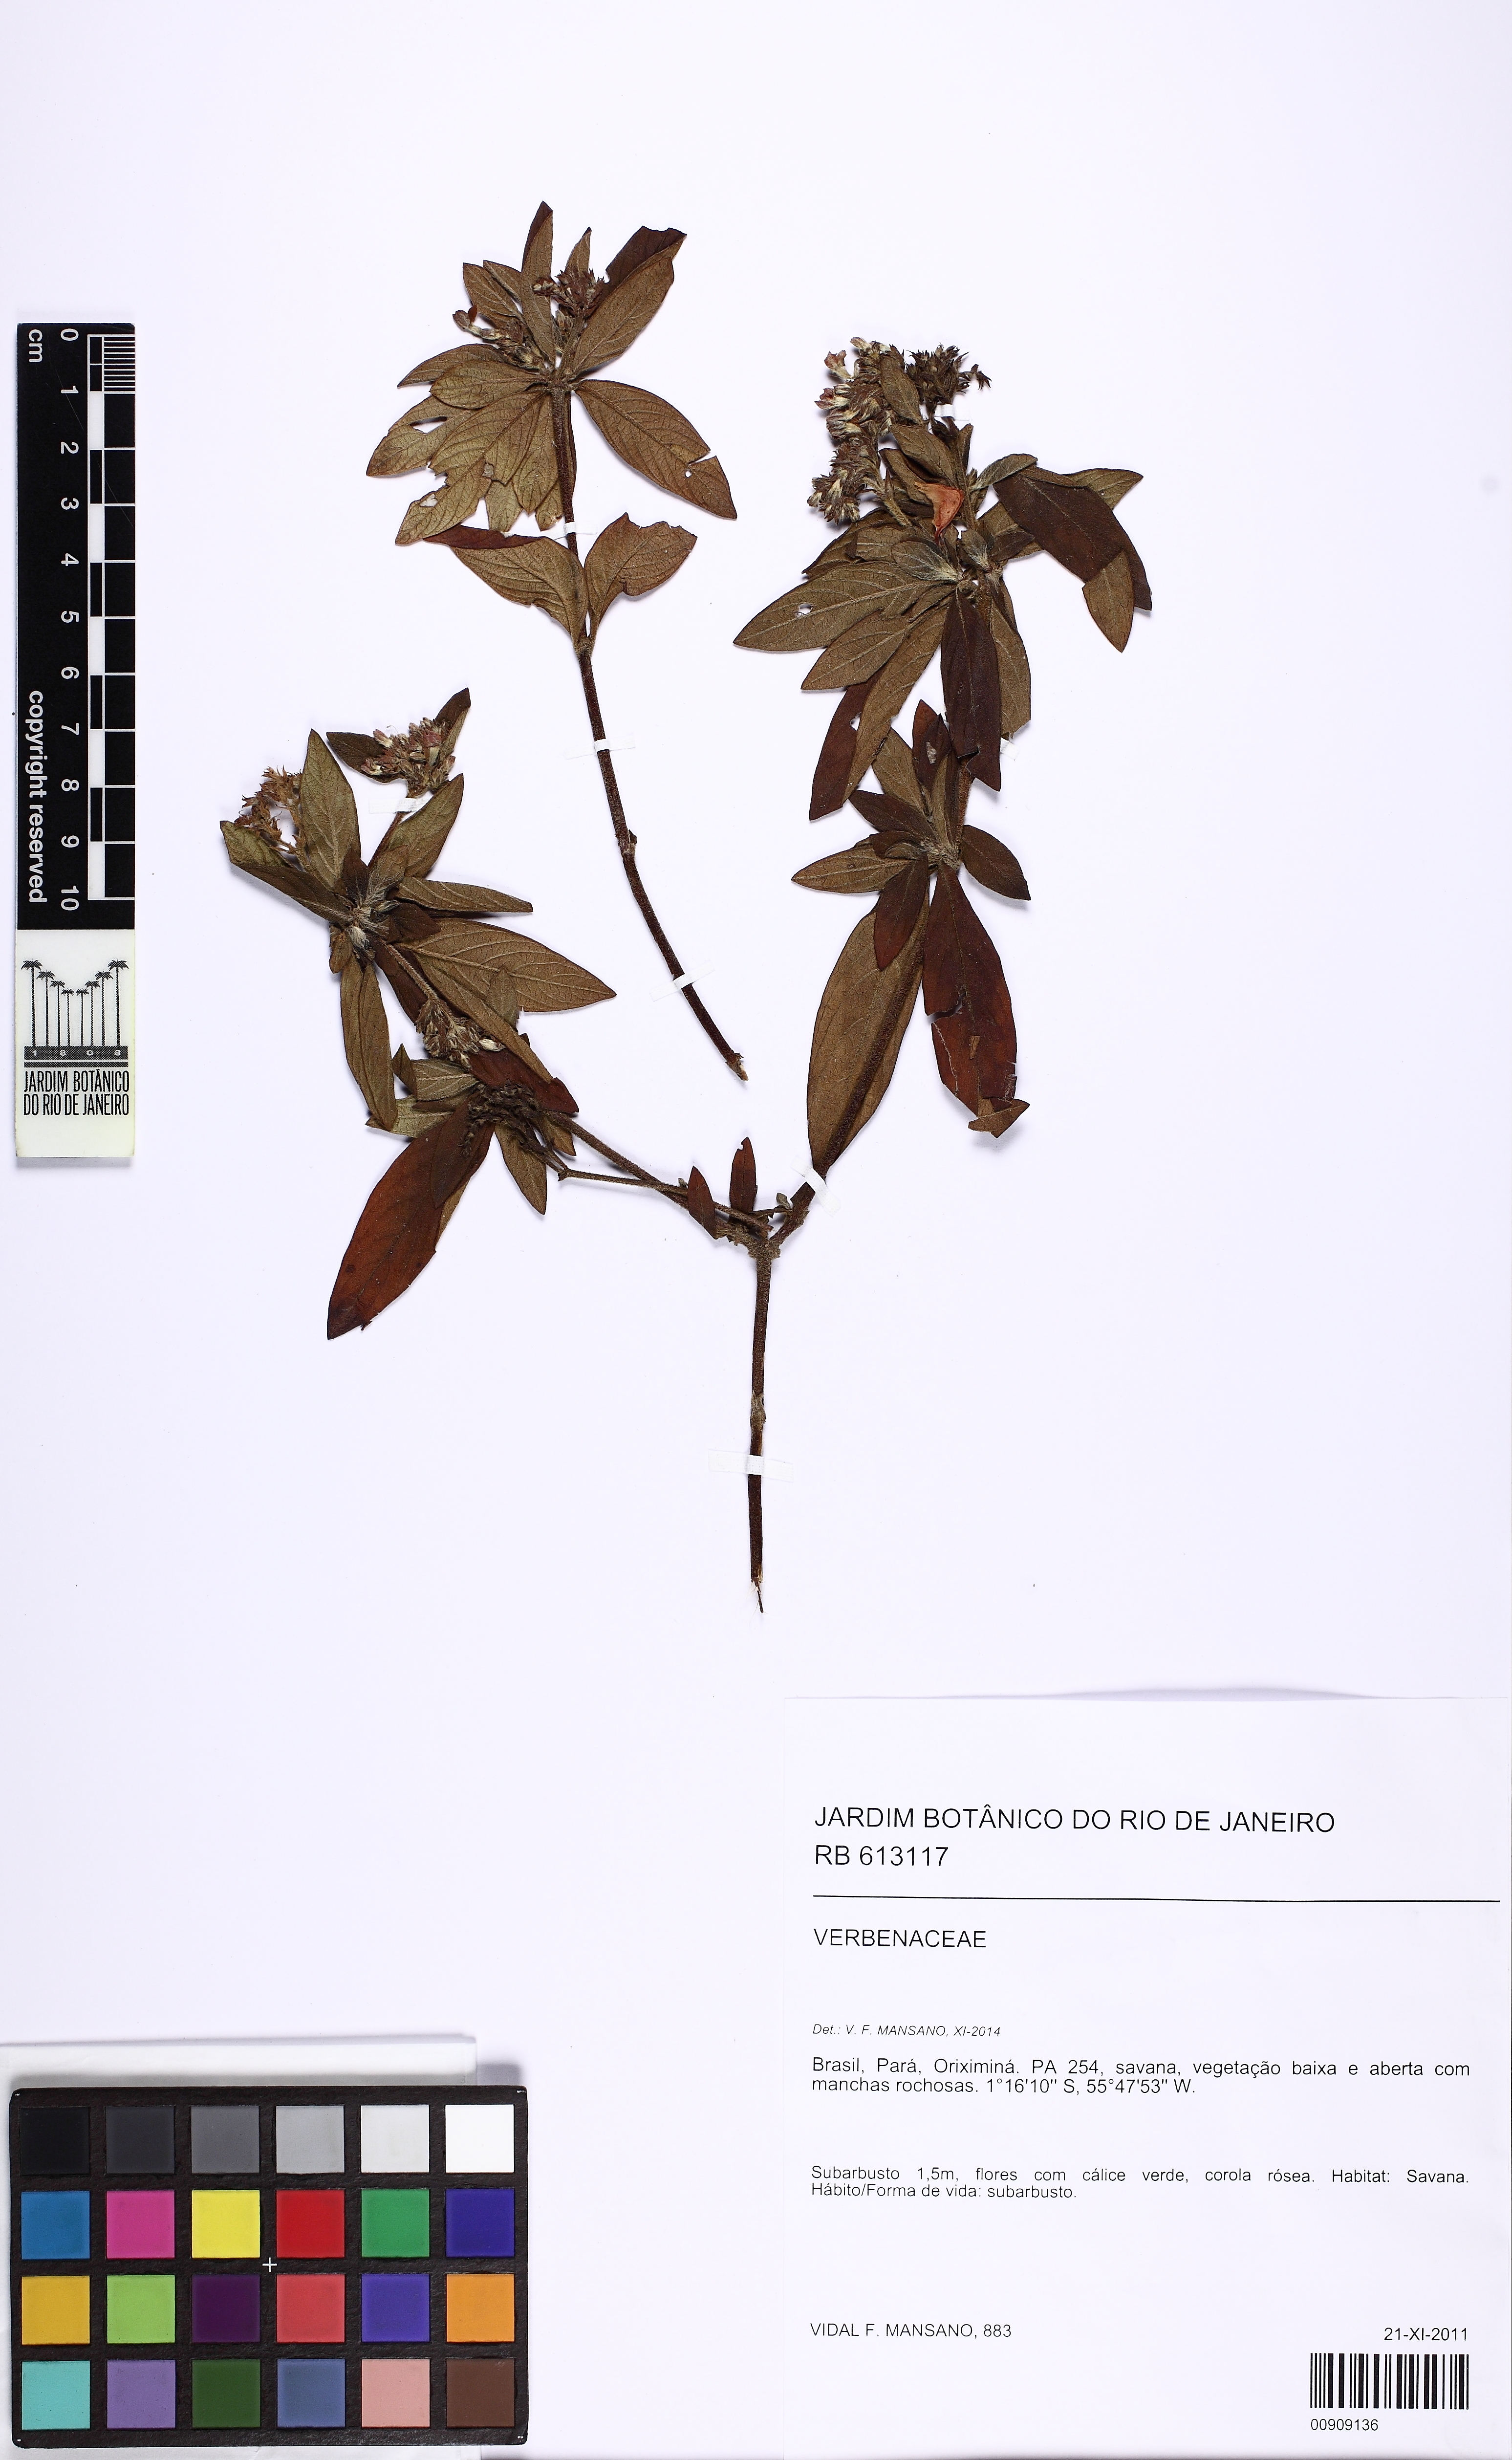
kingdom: Plantae
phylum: Tracheophyta
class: Magnoliopsida
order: Lamiales
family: Verbenaceae
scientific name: Verbenaceae
